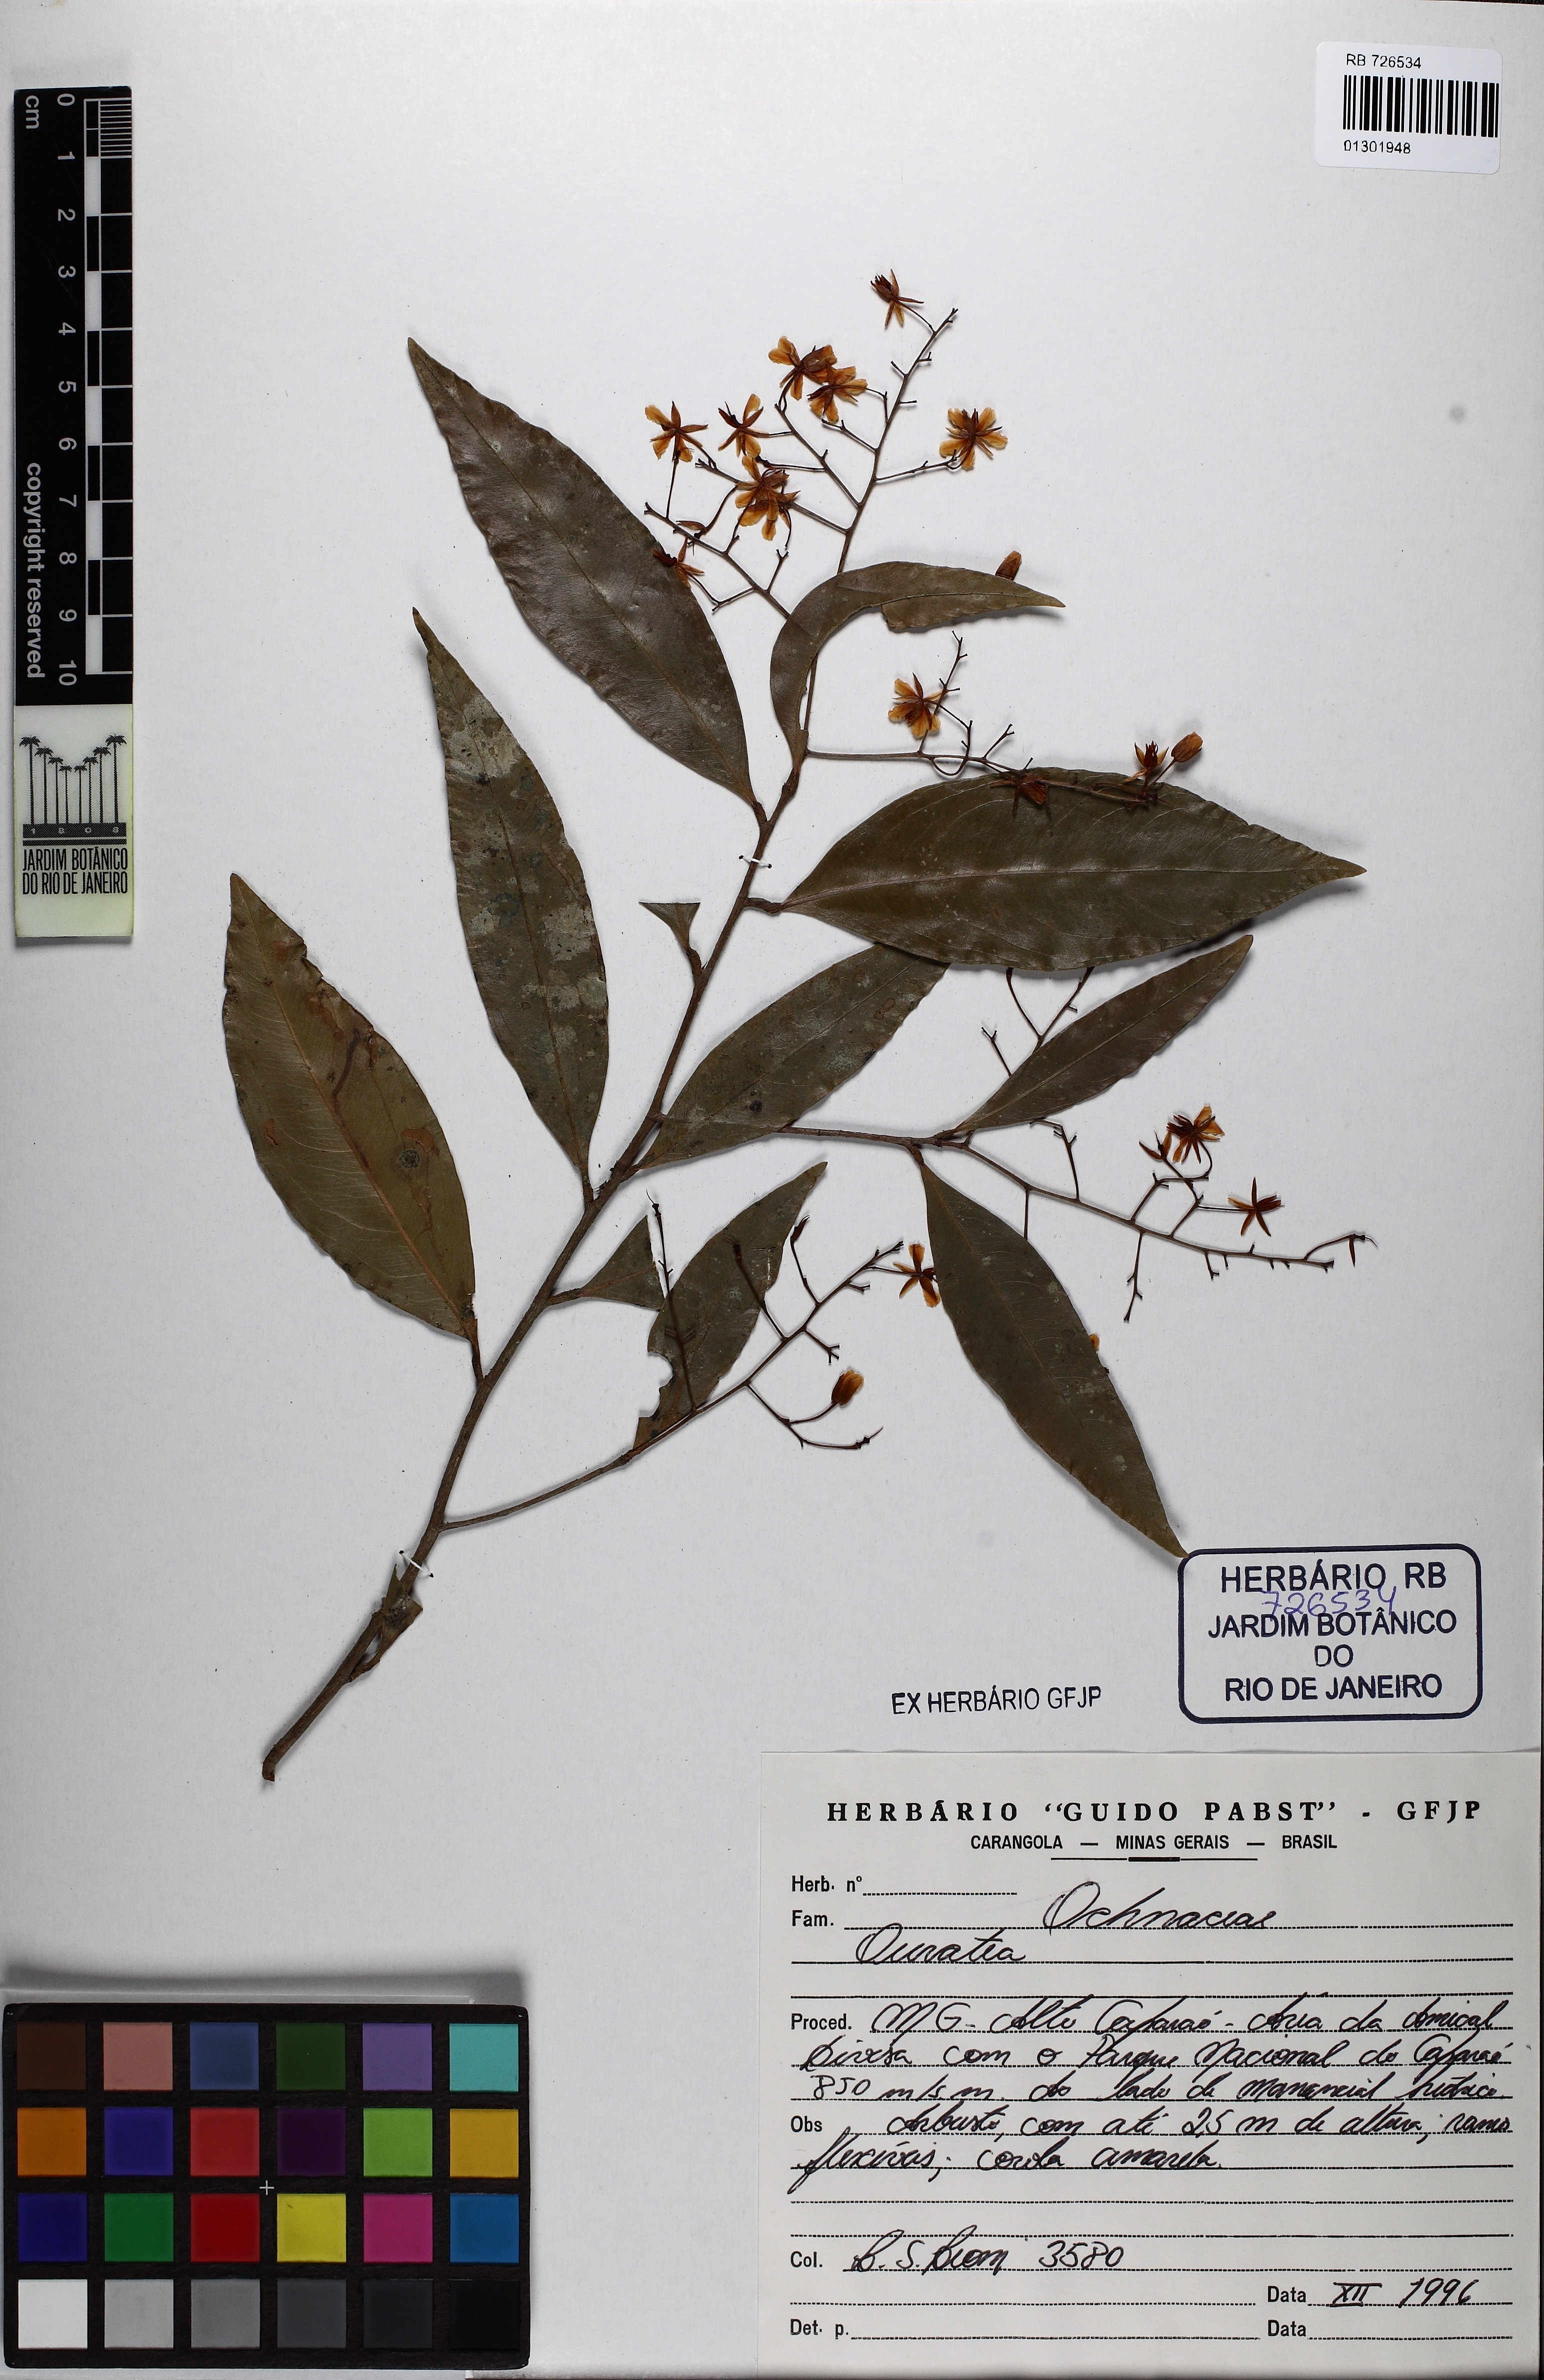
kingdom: Plantae
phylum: Tracheophyta
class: Magnoliopsida
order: Malpighiales
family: Ochnaceae
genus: Ouratea
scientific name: Ouratea parviflora
